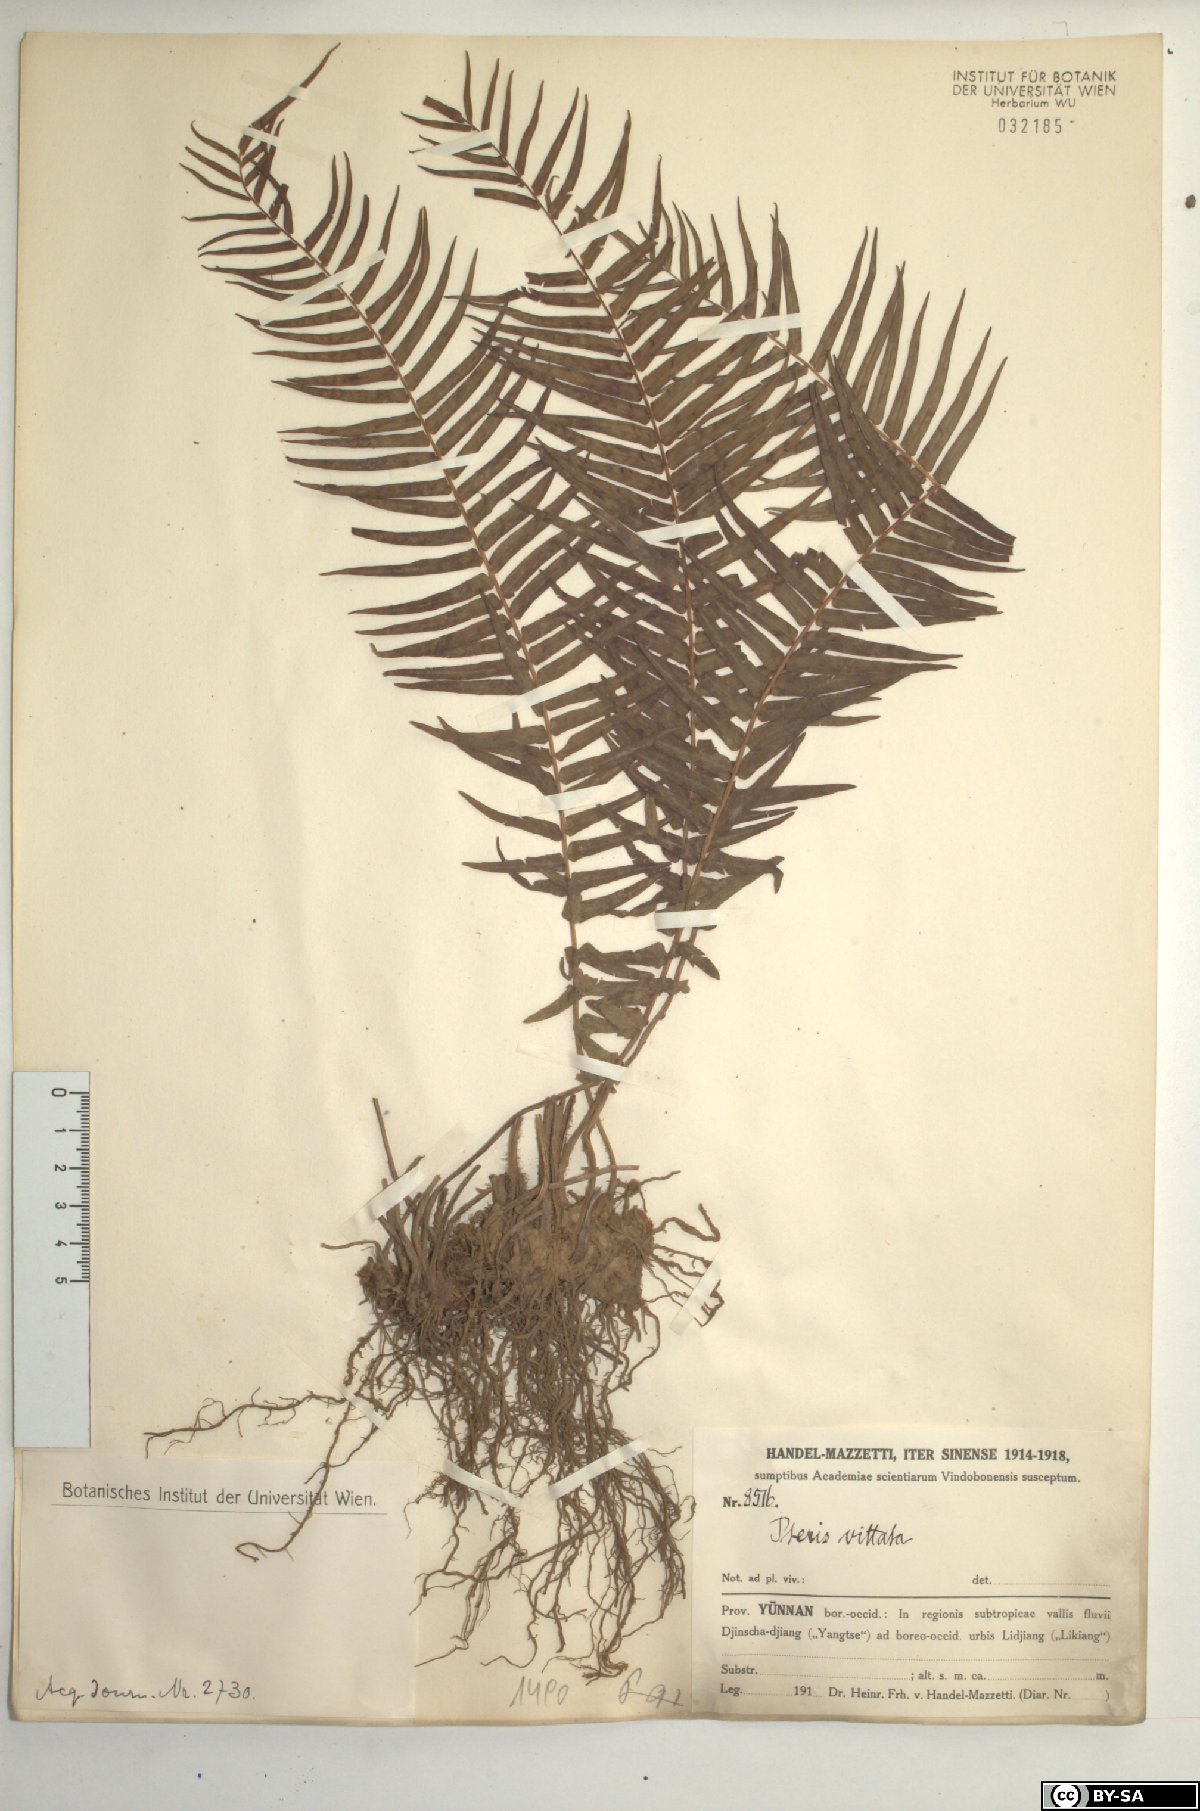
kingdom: Plantae
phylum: Tracheophyta
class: Polypodiopsida
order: Polypodiales
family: Pteridaceae
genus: Pteris
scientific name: Pteris vittata
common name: Ladder brake
